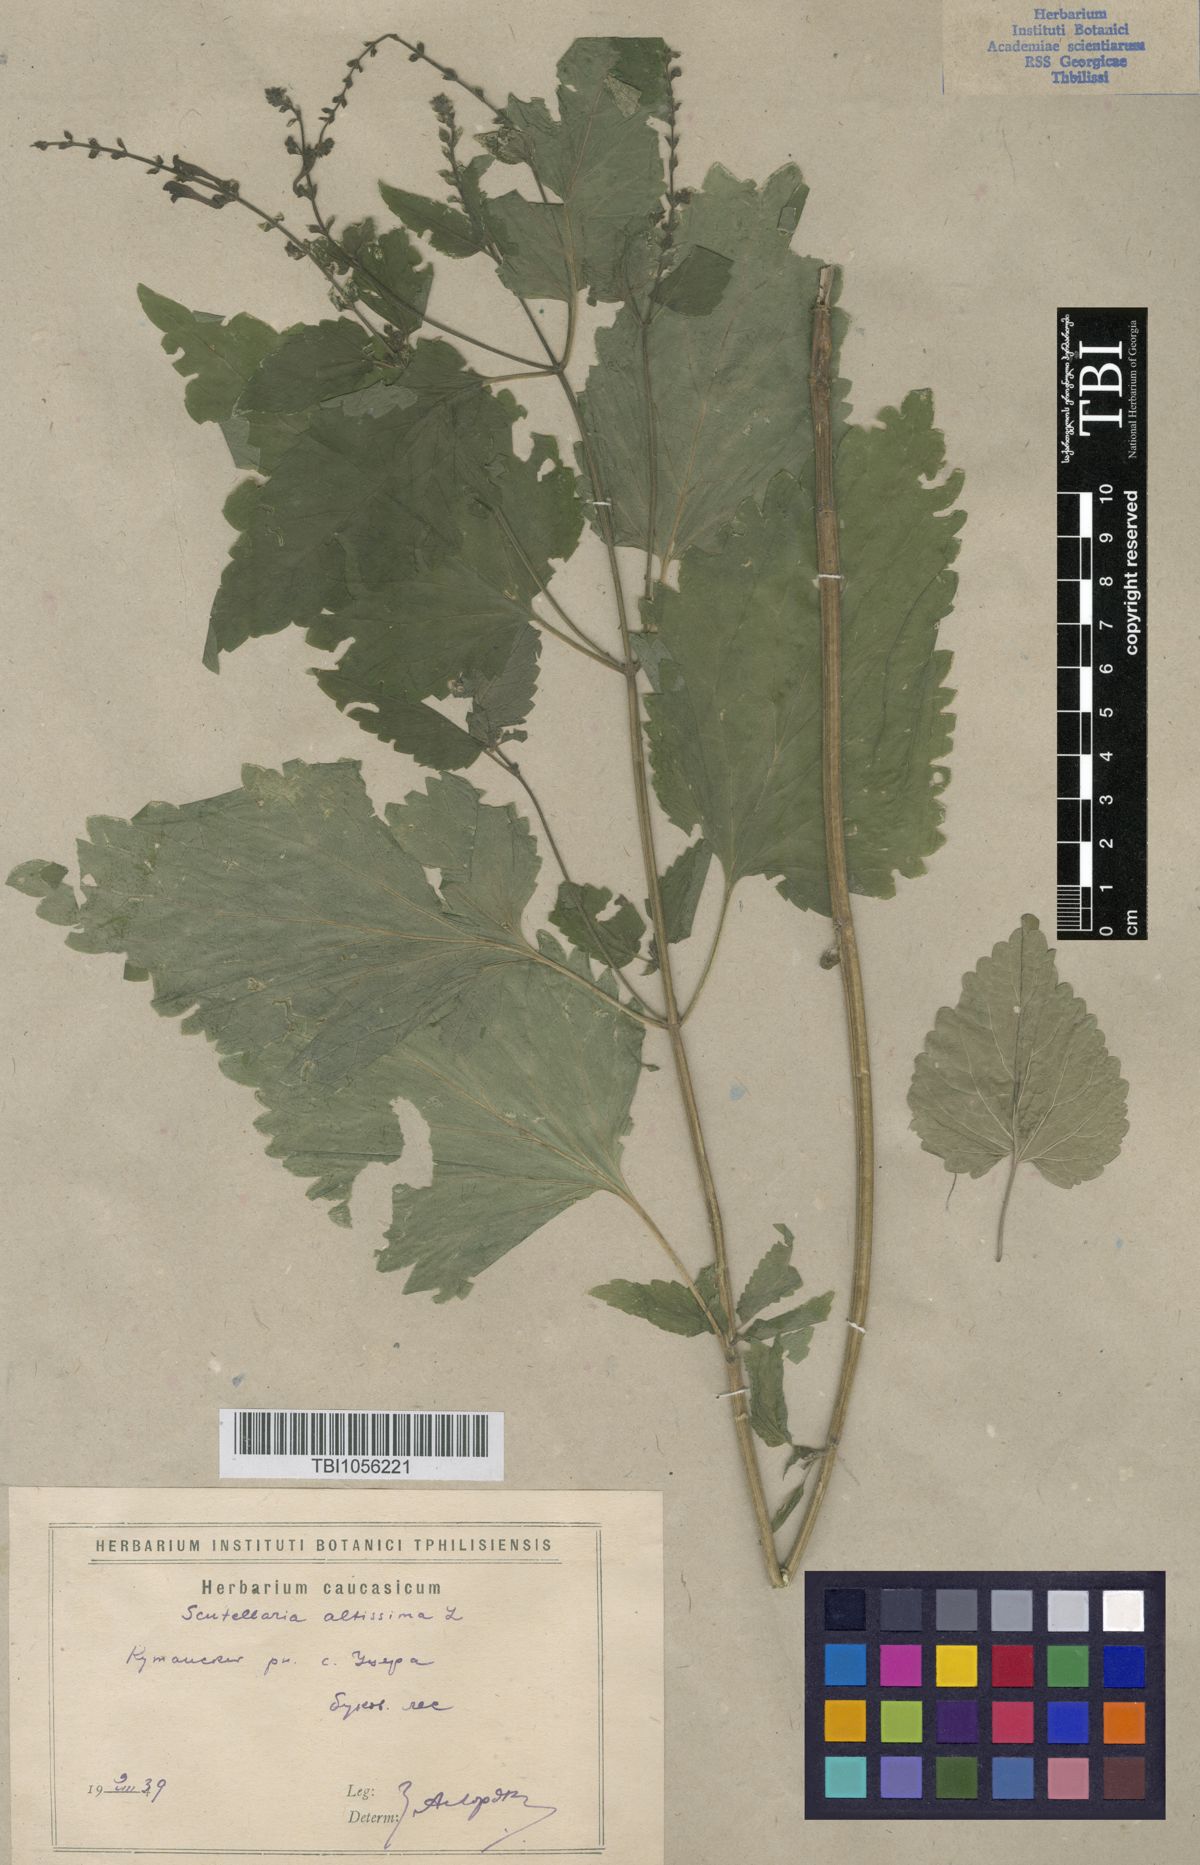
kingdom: Plantae
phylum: Tracheophyta
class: Magnoliopsida
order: Lamiales
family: Lamiaceae
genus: Scutellaria
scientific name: Scutellaria altissima
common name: Somerset skullcap
